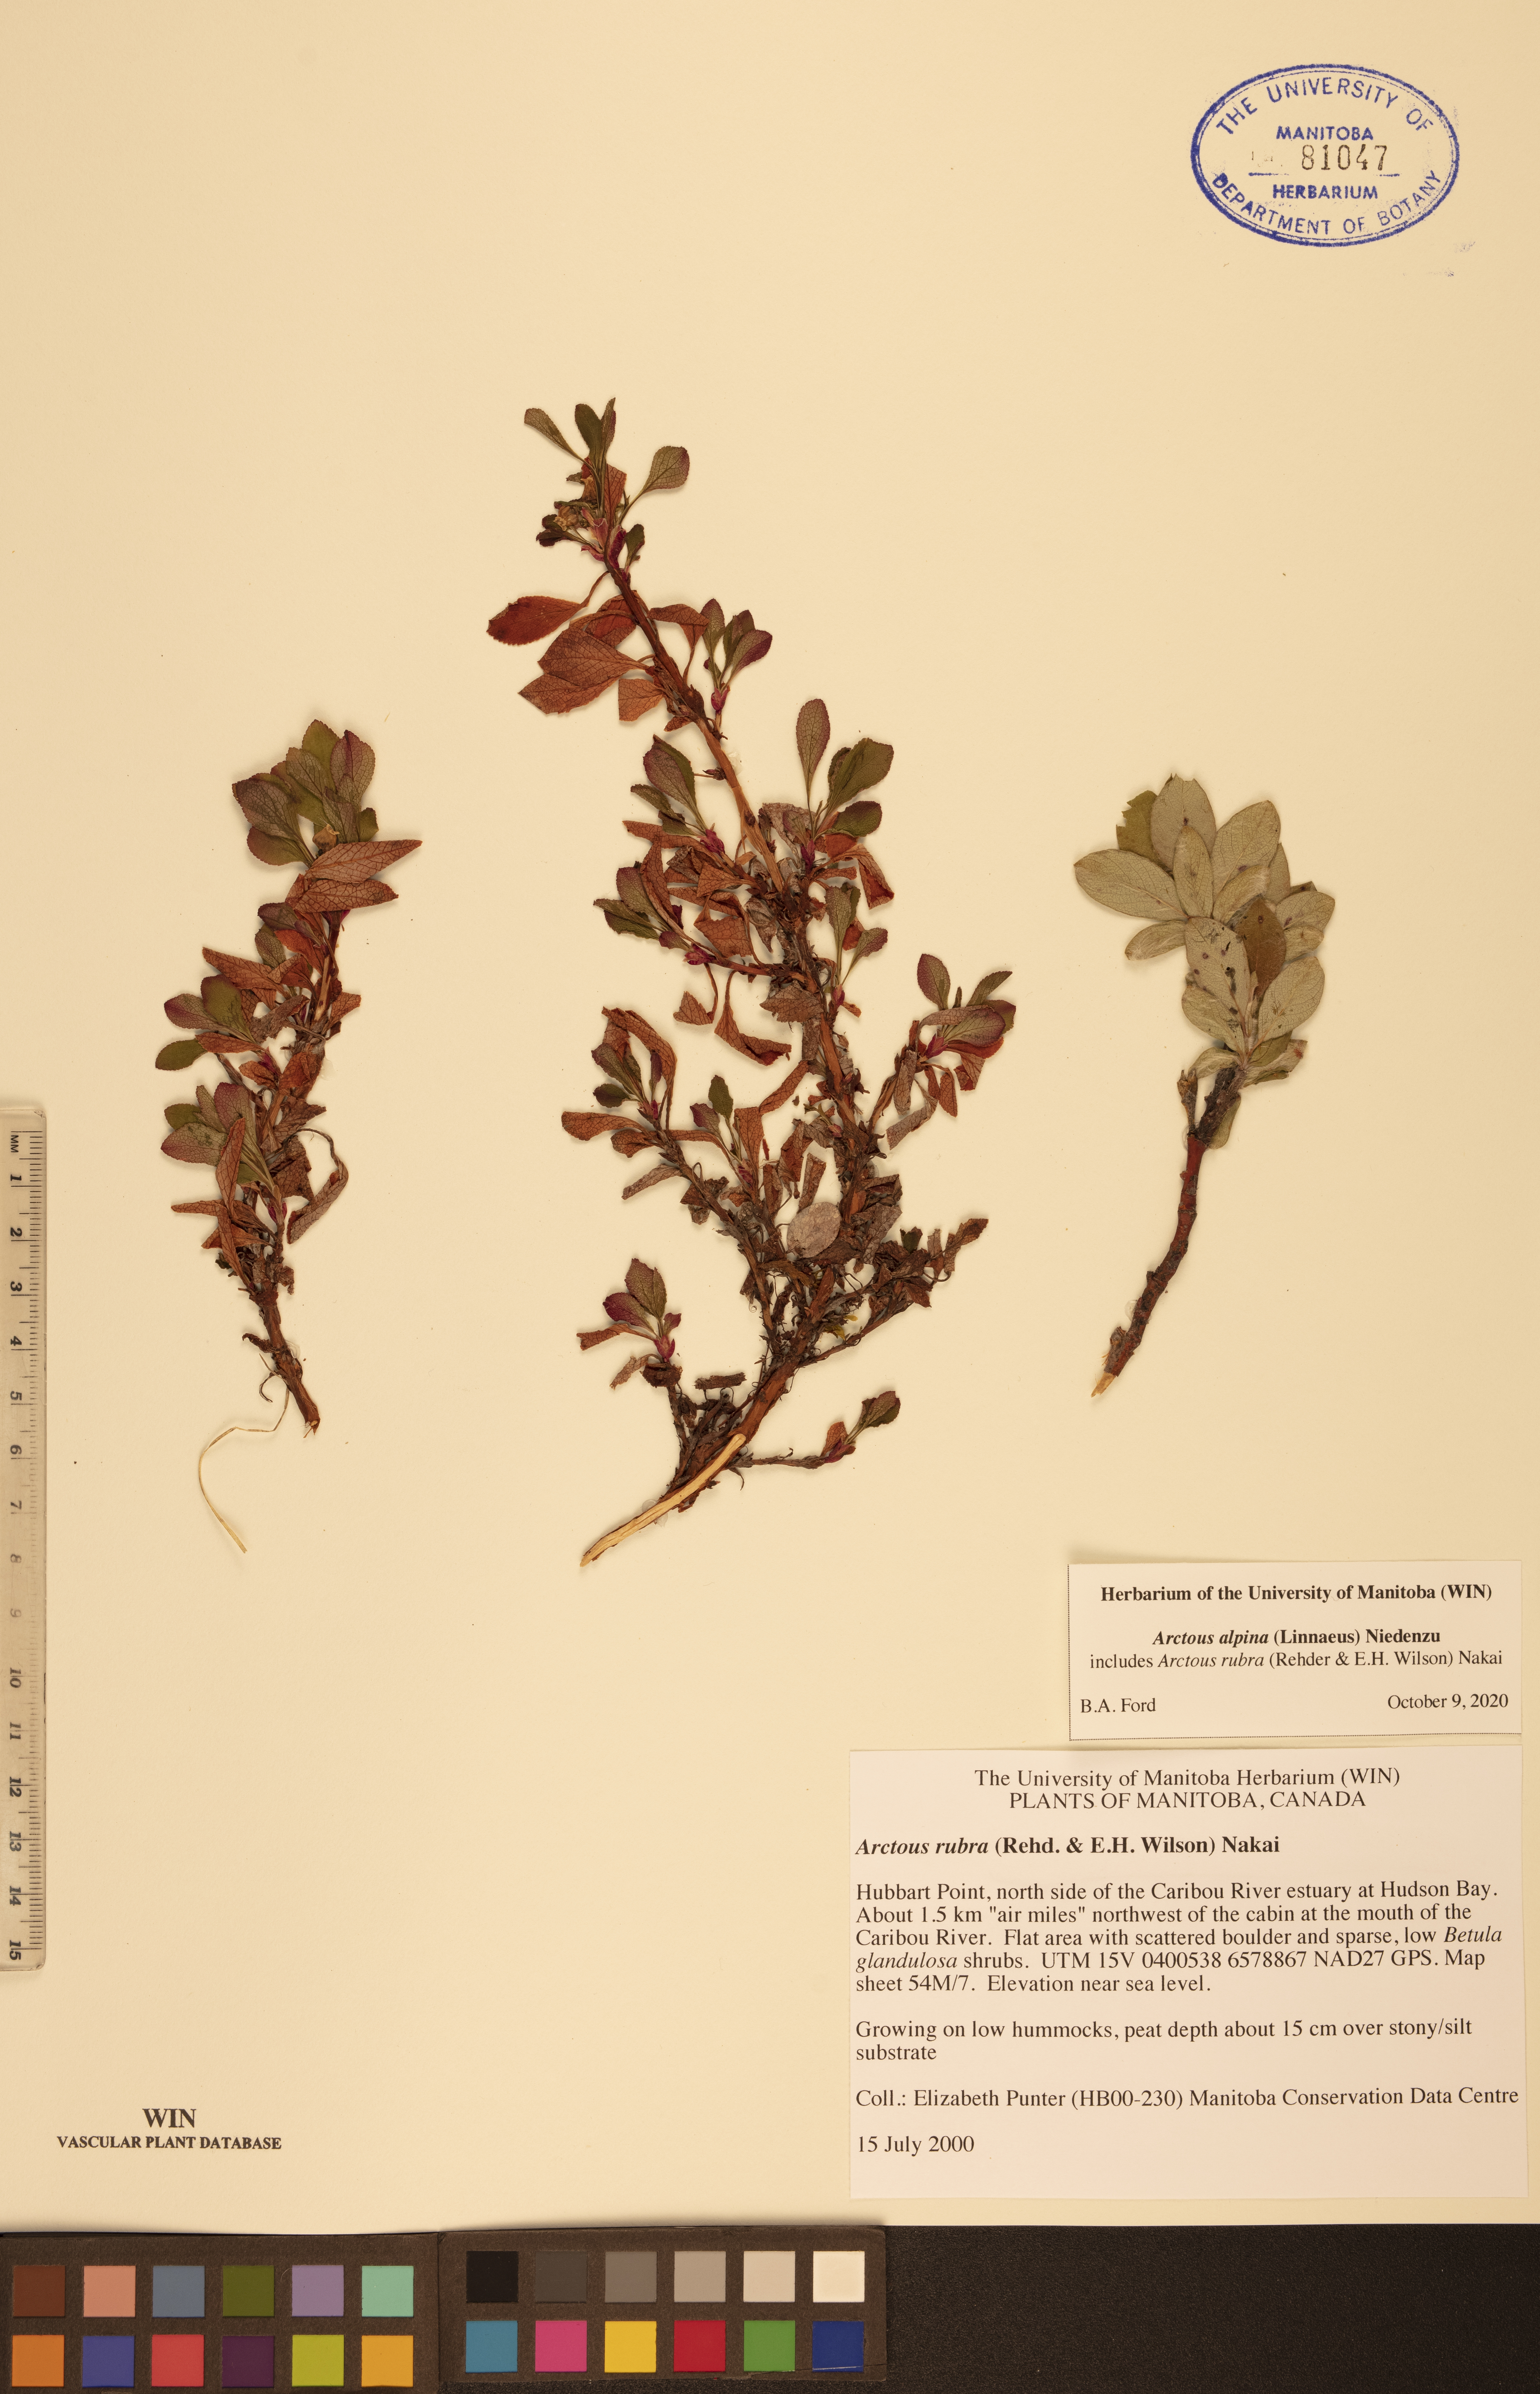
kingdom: Plantae
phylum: Tracheophyta
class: Magnoliopsida
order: Ericales
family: Ericaceae
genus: Arctostaphylos
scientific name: Arctostaphylos alpinus
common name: Alpine bearberry
